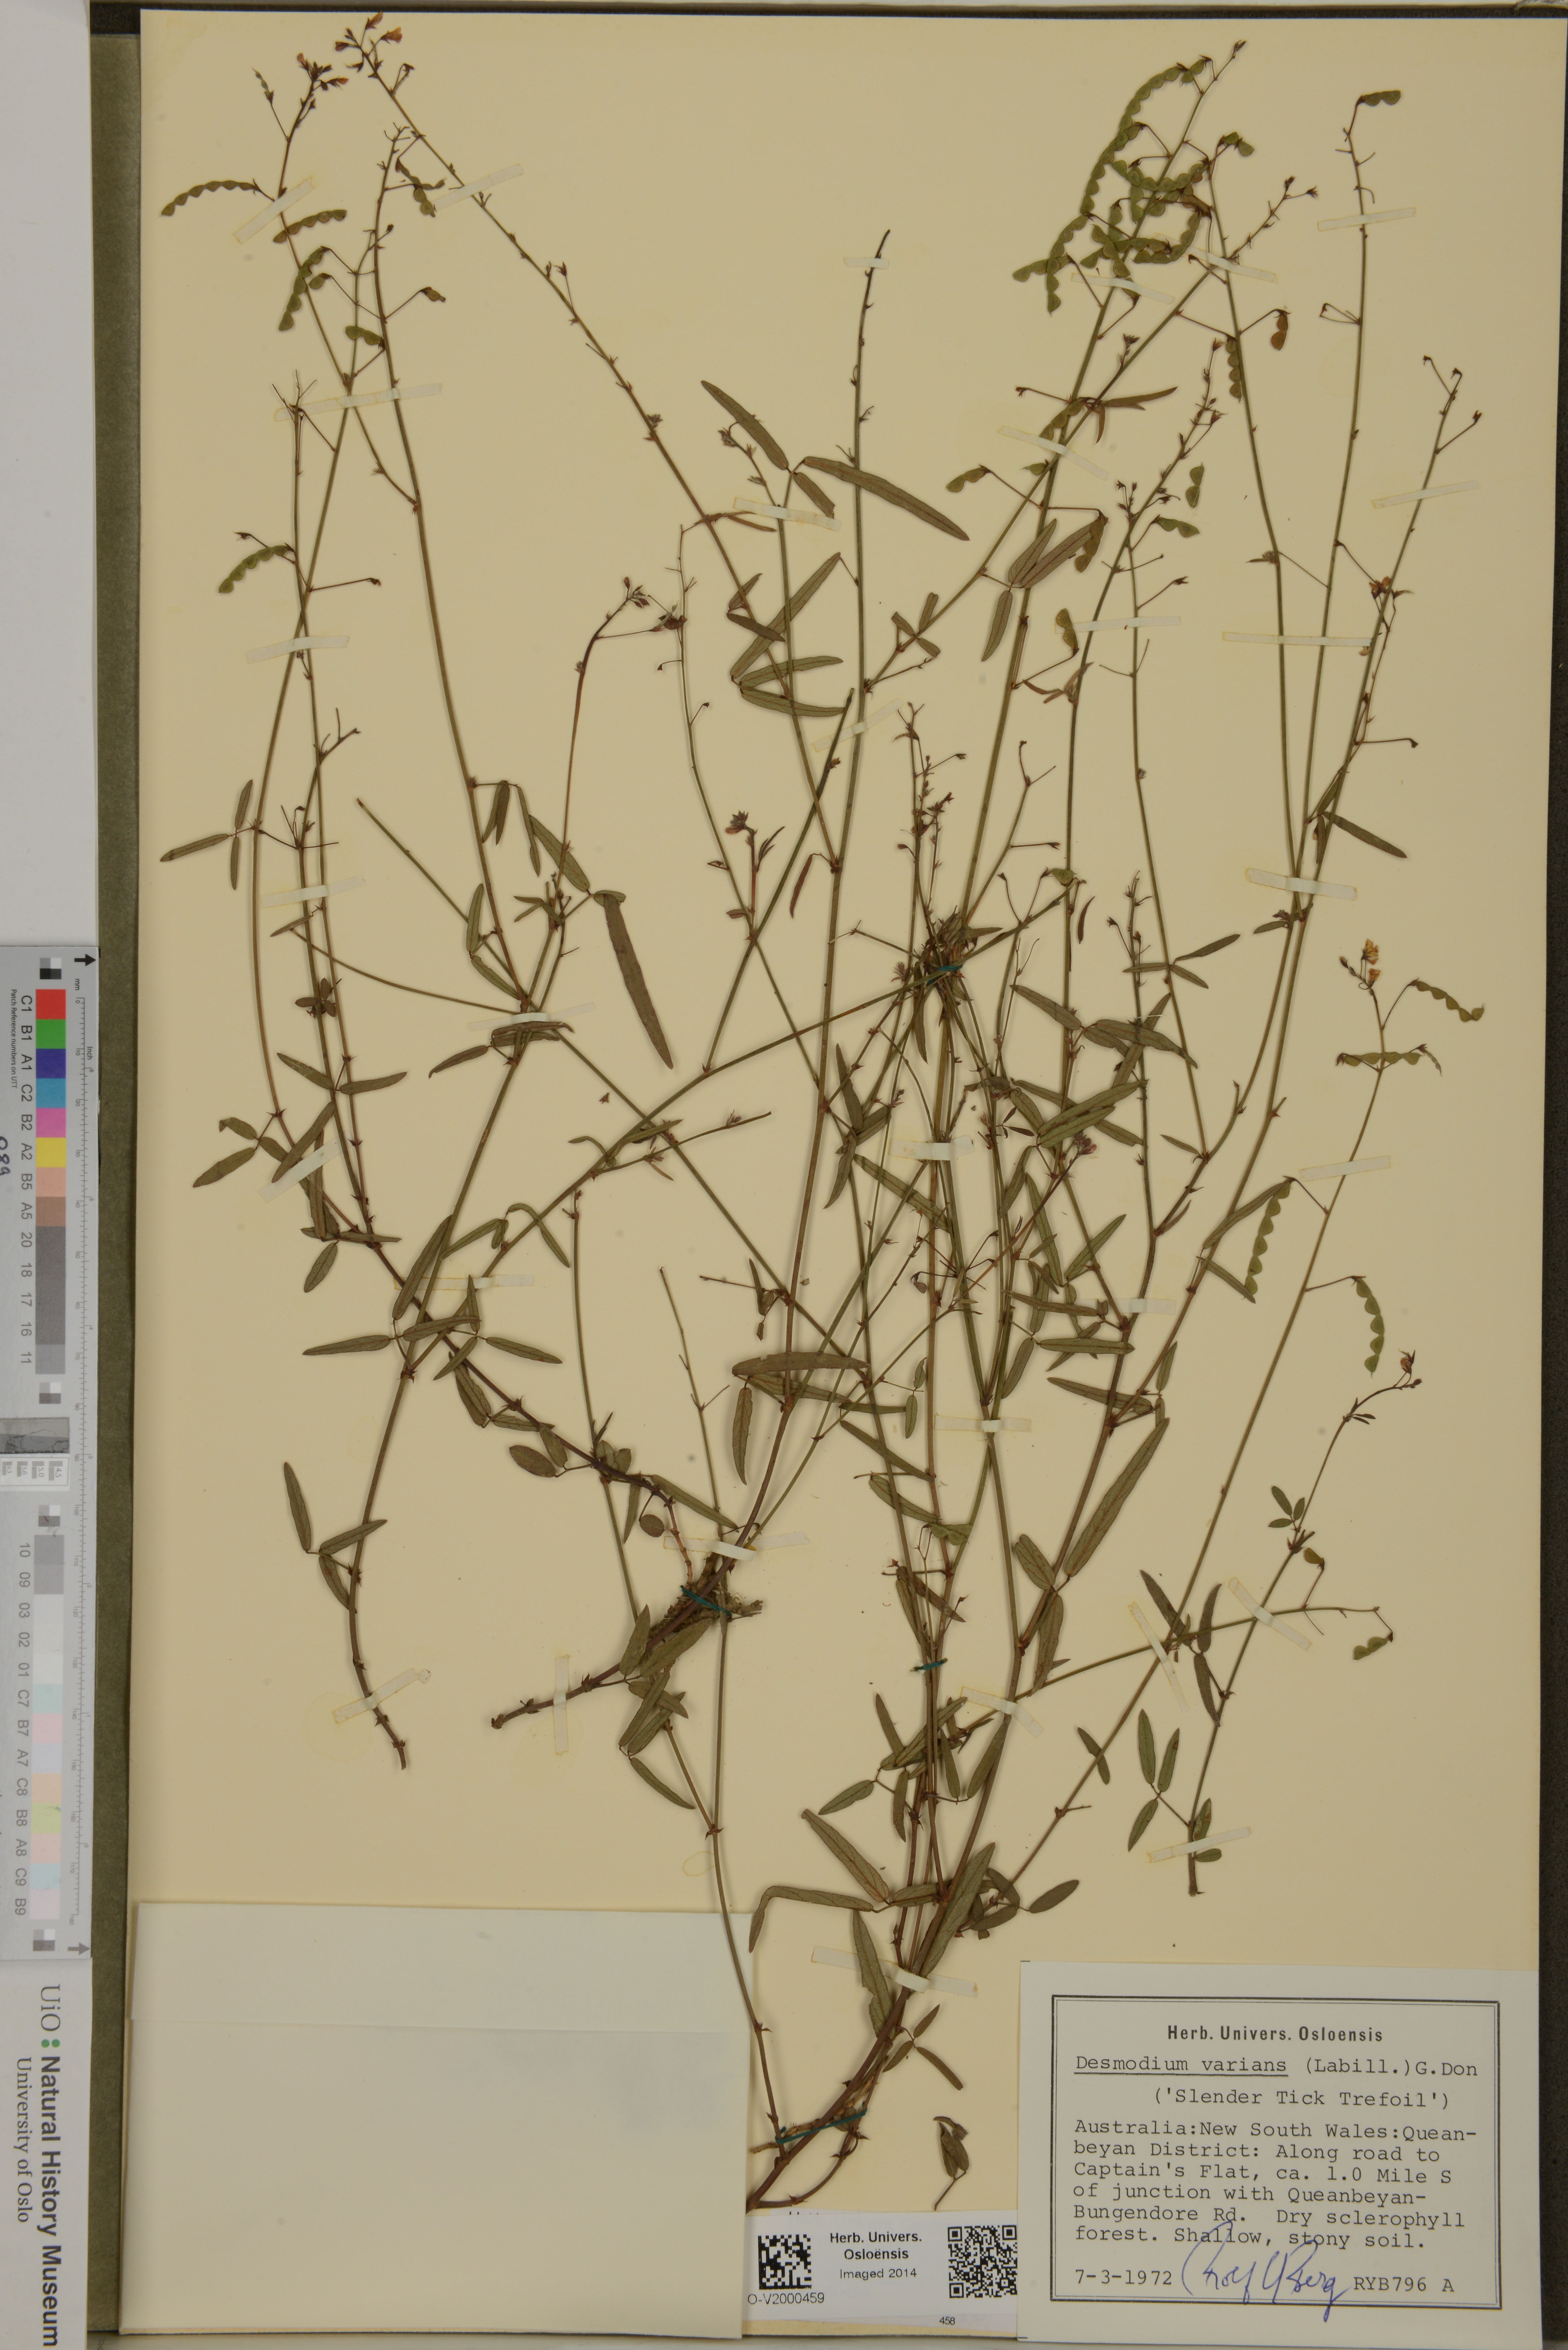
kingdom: Plantae
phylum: Tracheophyta
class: Magnoliopsida
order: Fabales
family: Fabaceae
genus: Grona
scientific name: Grona varians
